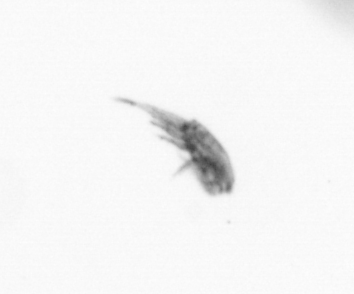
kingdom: Animalia
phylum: Arthropoda
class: Copepoda
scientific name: Copepoda
